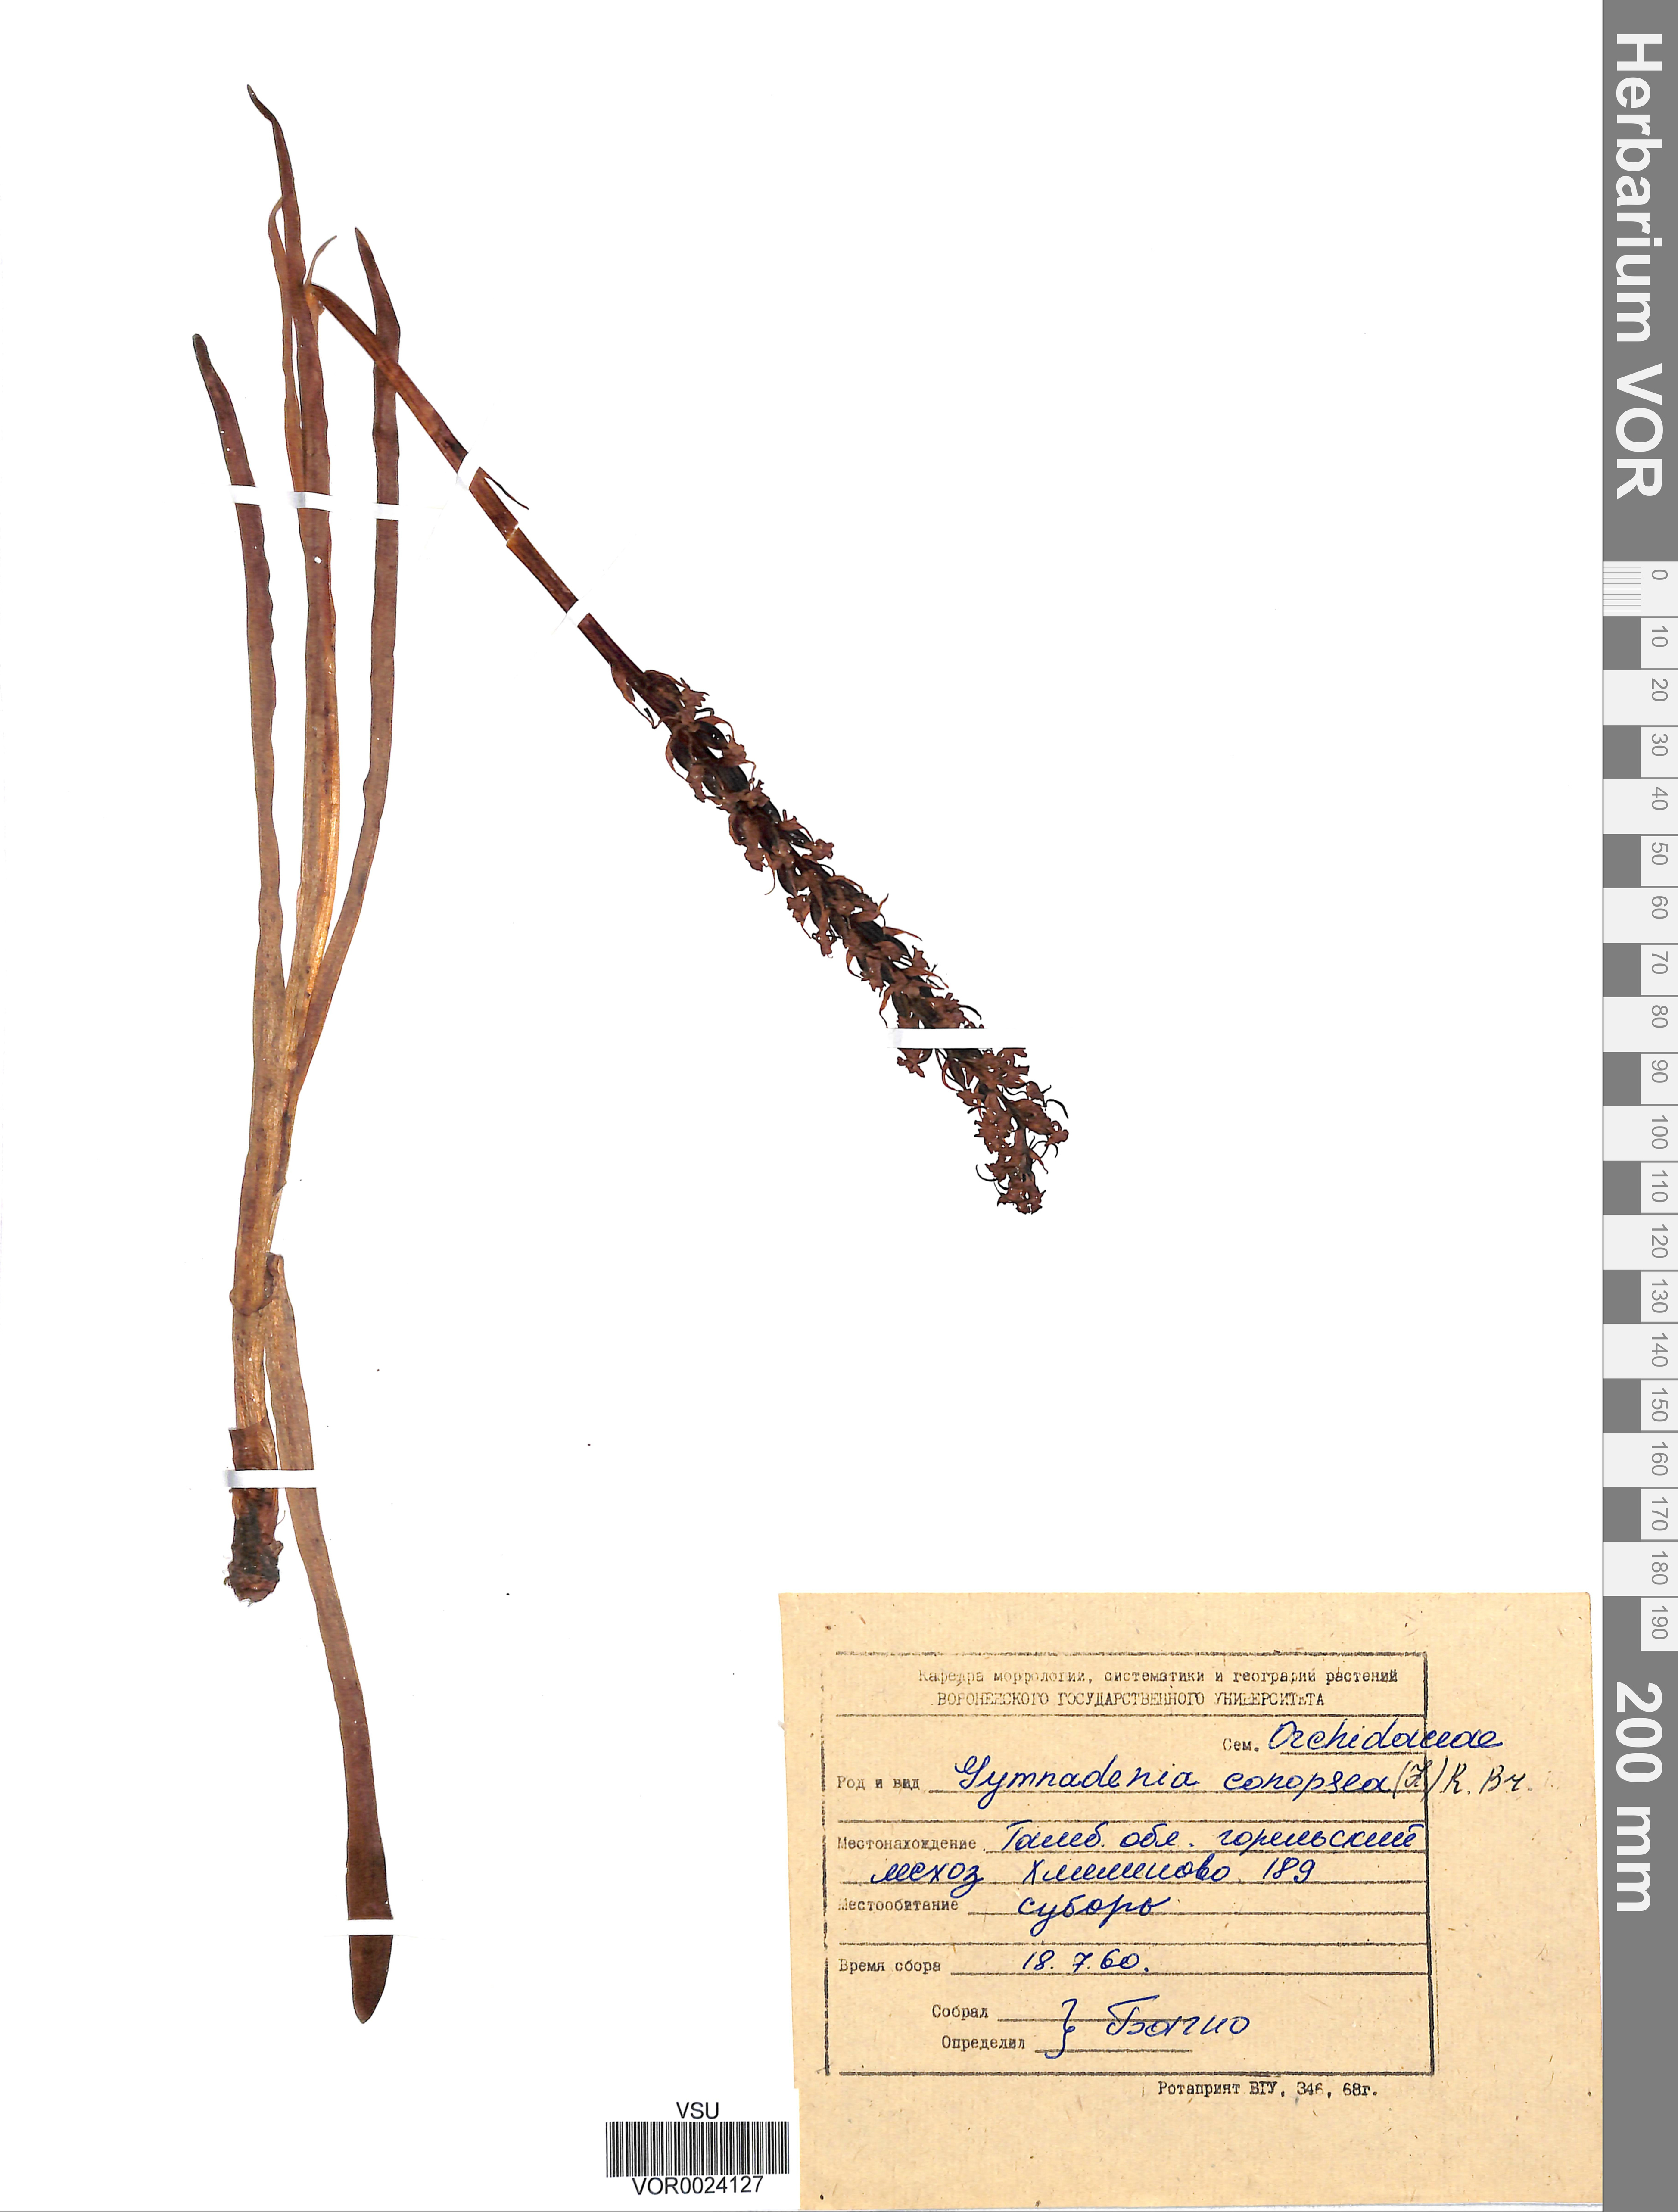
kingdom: Plantae
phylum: Tracheophyta
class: Liliopsida
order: Asparagales
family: Orchidaceae
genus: Gymnadenia
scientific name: Gymnadenia conopsea
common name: Fragrant orchid
